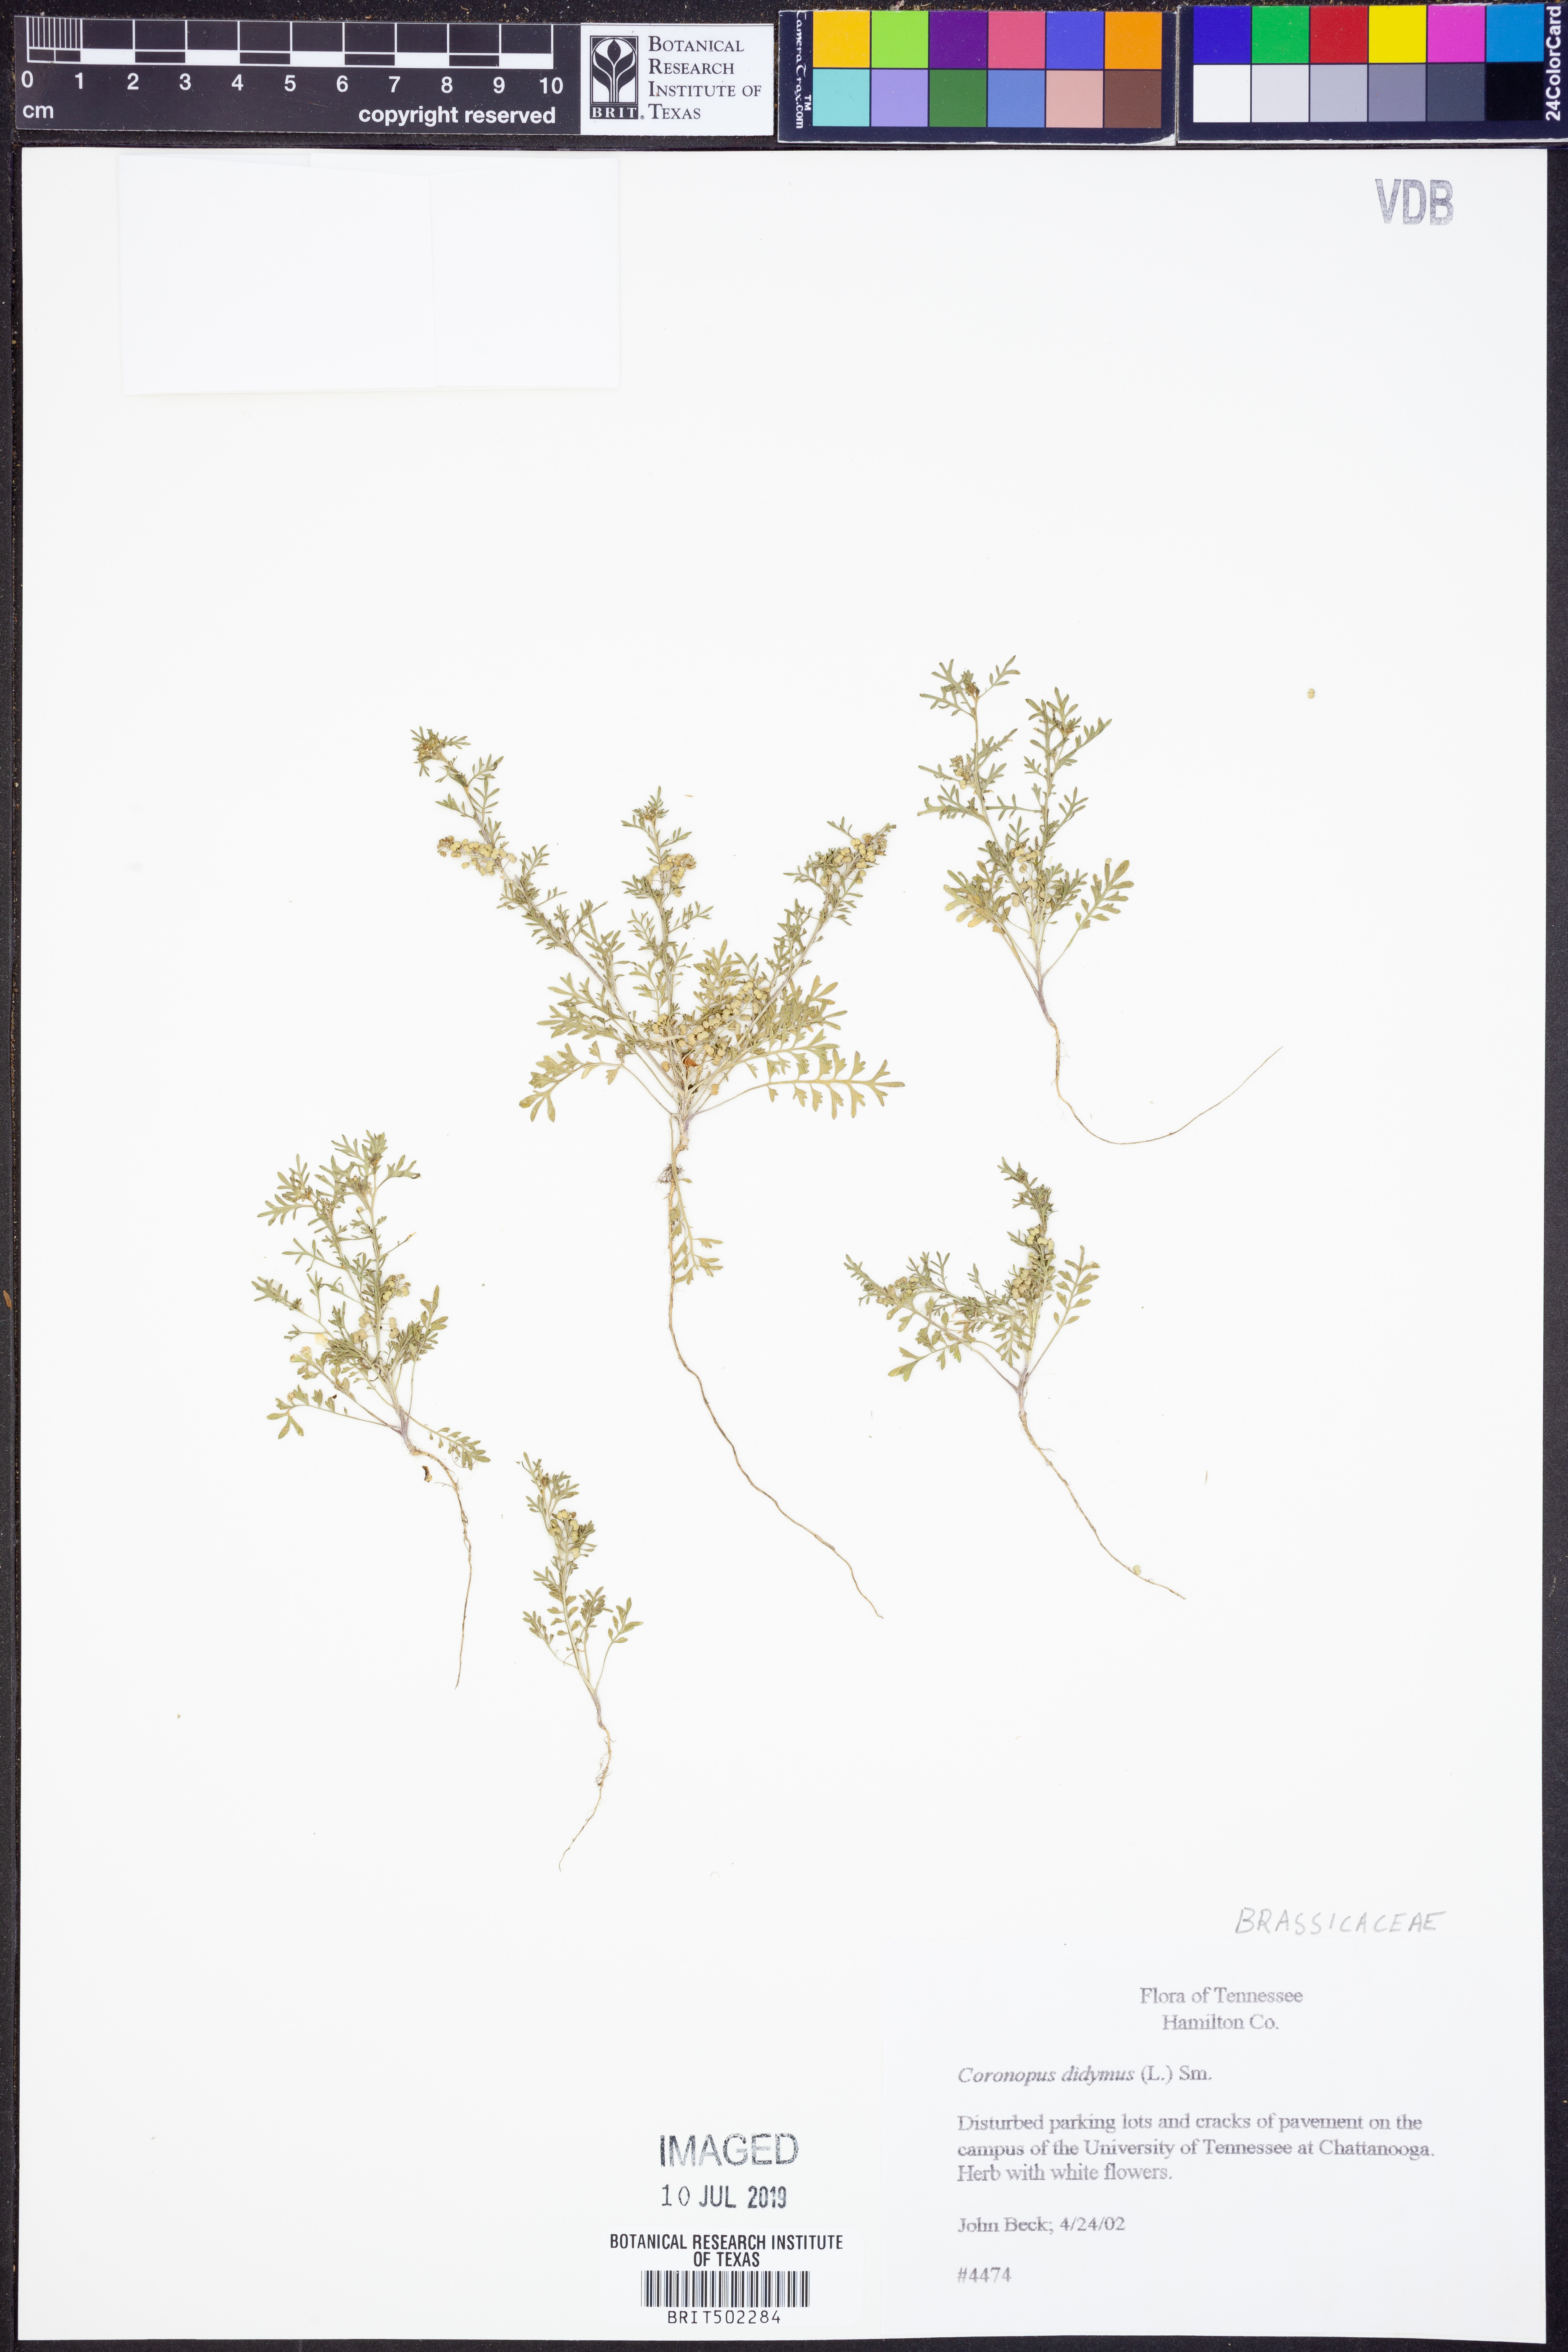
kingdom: Plantae
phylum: Tracheophyta
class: Magnoliopsida
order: Brassicales
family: Brassicaceae
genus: Lepidium
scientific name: Lepidium didymum
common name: Lesser swinecress
